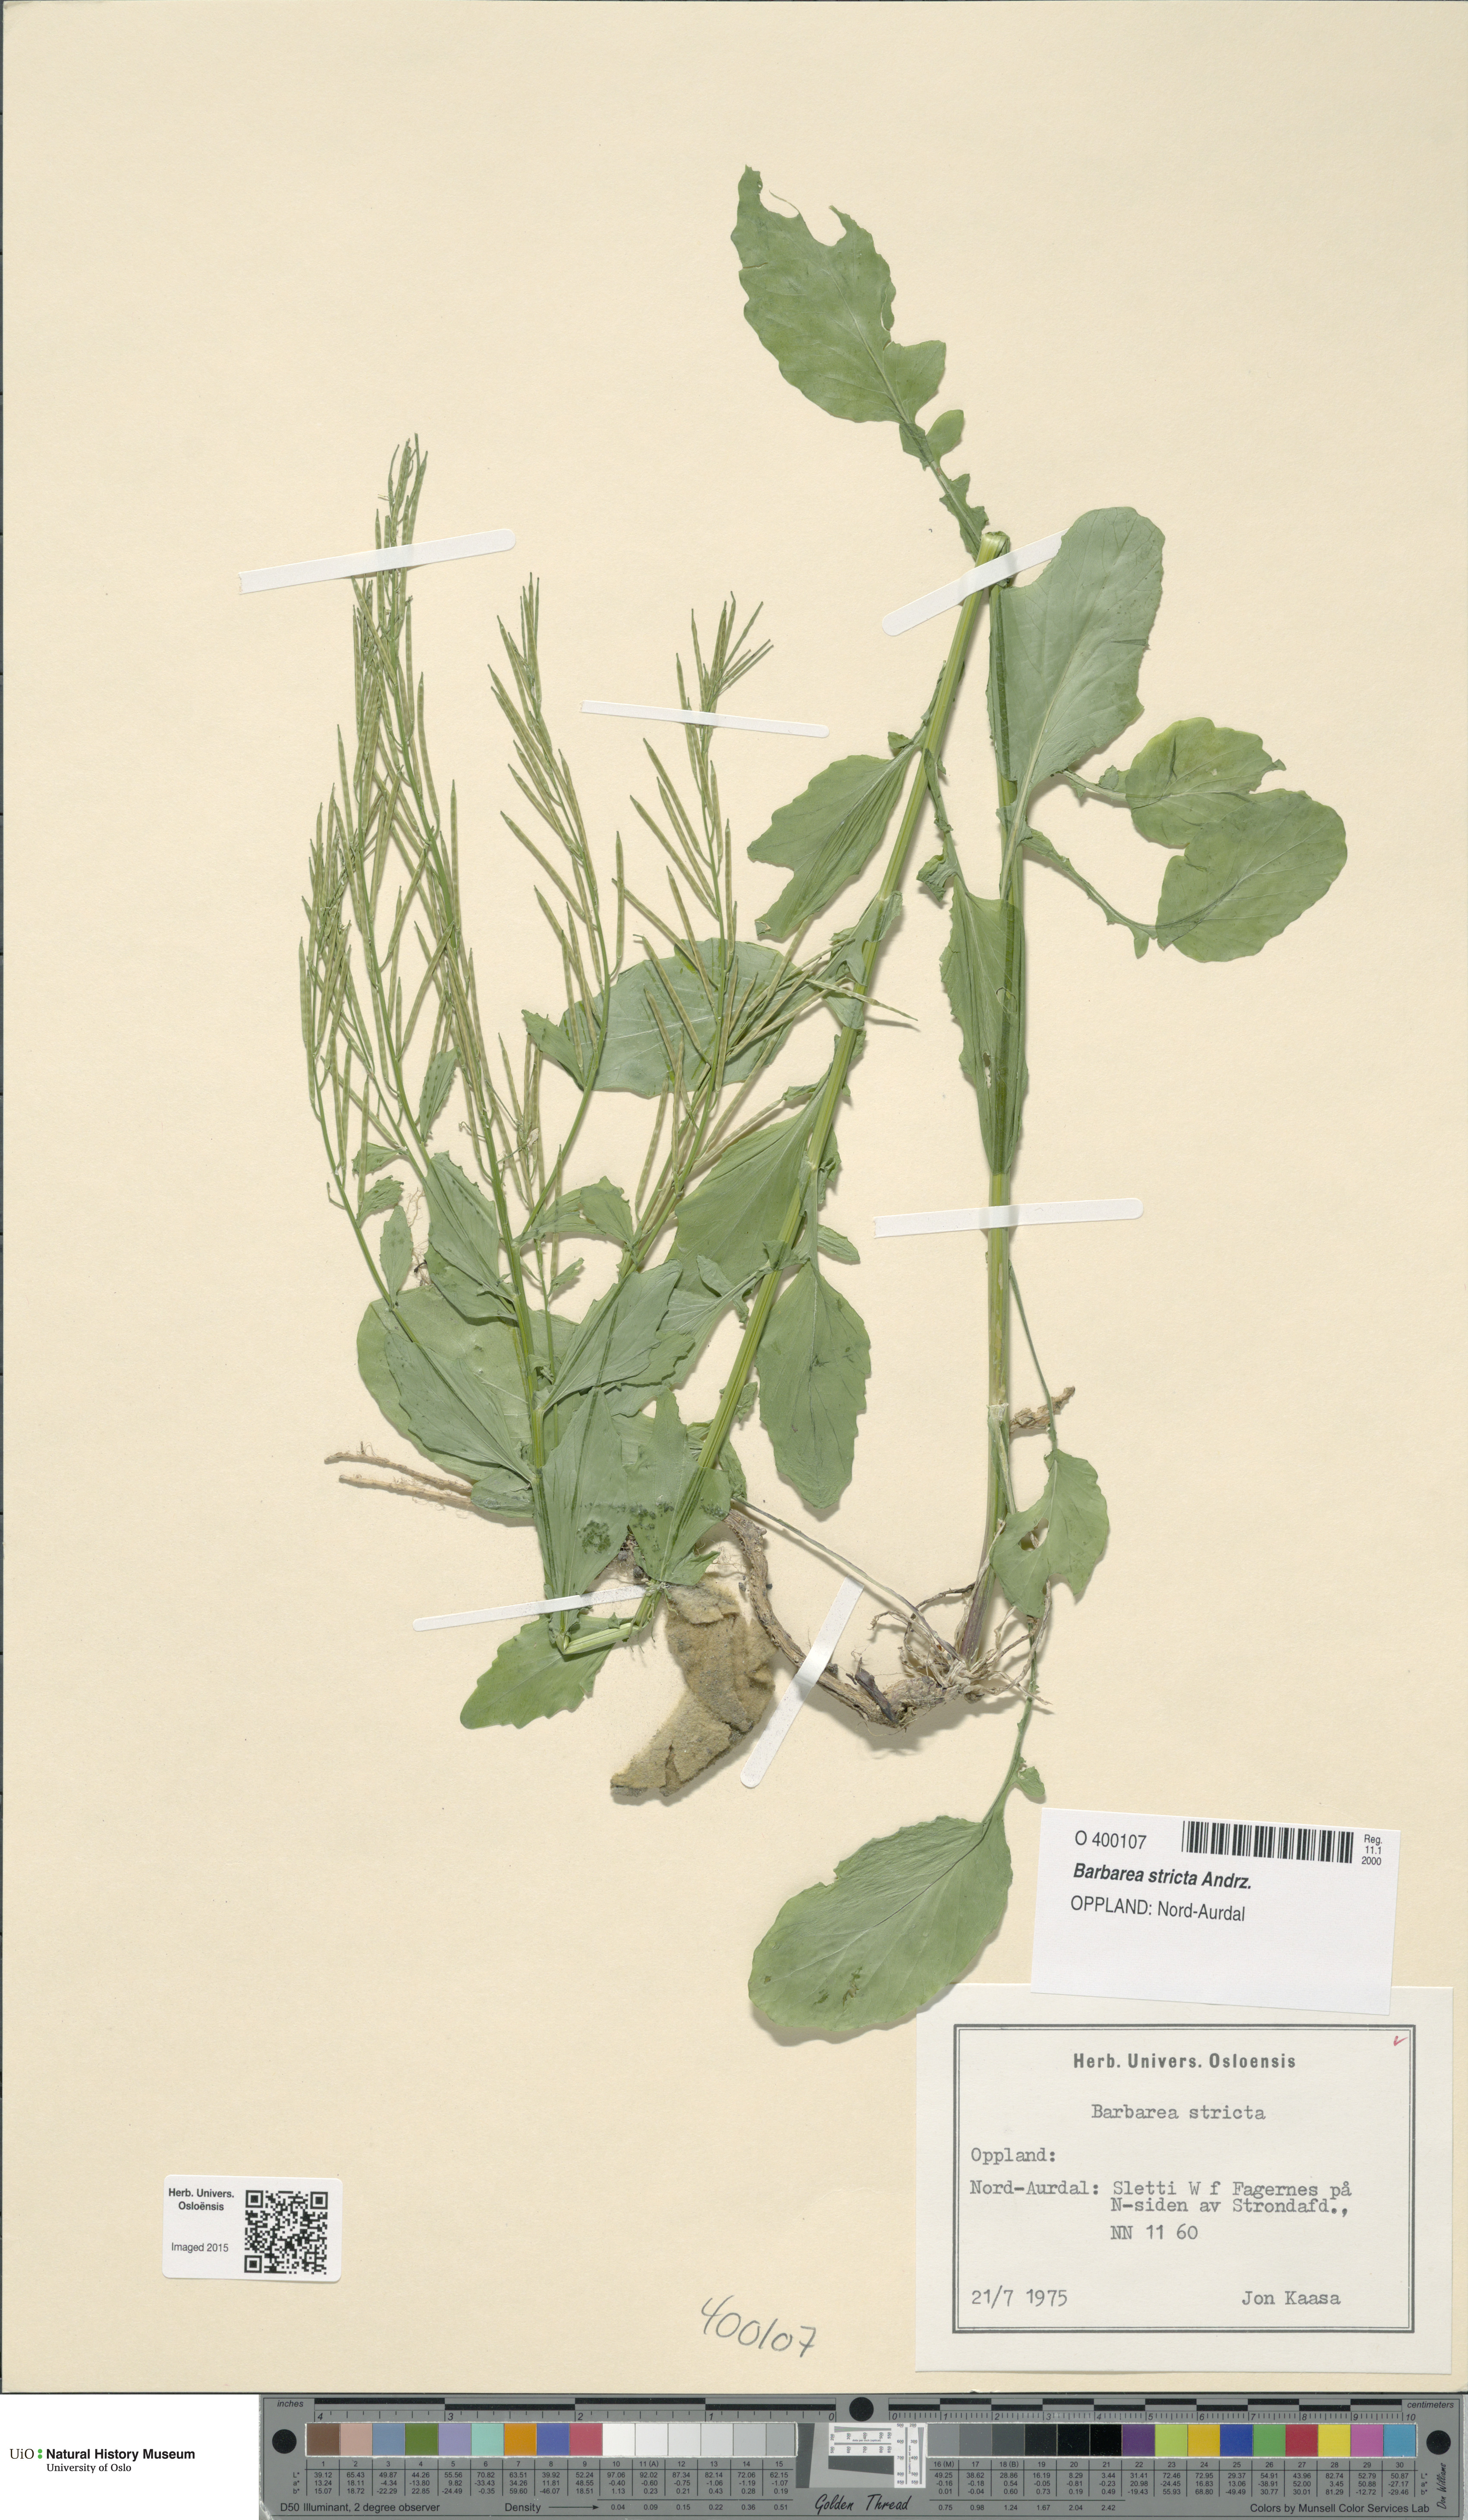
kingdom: Plantae
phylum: Tracheophyta
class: Magnoliopsida
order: Brassicales
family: Brassicaceae
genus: Barbarea
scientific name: Barbarea stricta
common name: Small-flowered winter-cress
